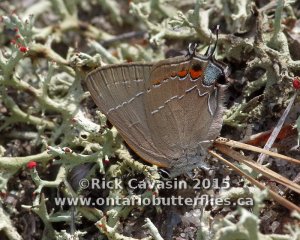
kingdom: Animalia
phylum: Arthropoda
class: Insecta
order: Lepidoptera
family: Lycaenidae
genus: Fixsenia
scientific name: Fixsenia favonius
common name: Oak Hairstreak
